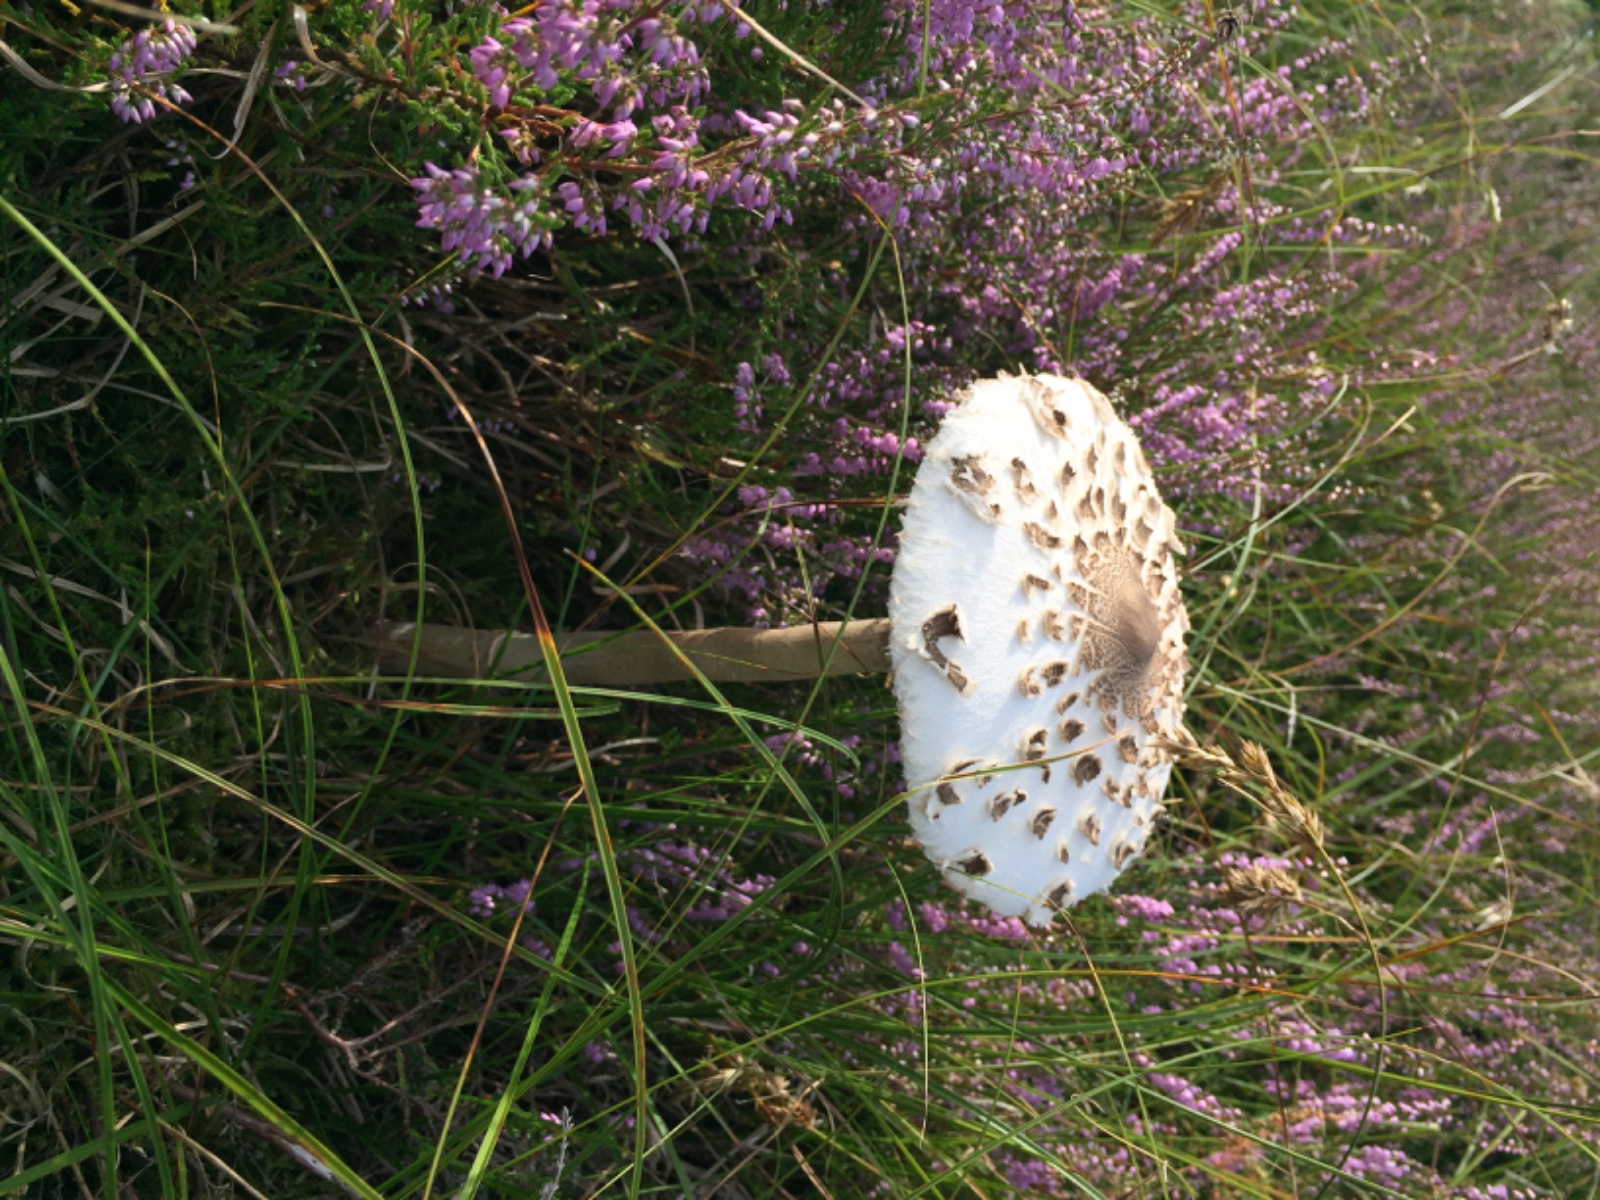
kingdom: Fungi
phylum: Basidiomycota
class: Agaricomycetes
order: Agaricales
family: Agaricaceae
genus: Macrolepiota
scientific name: Macrolepiota procera
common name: stor kæmpeparasolhat
